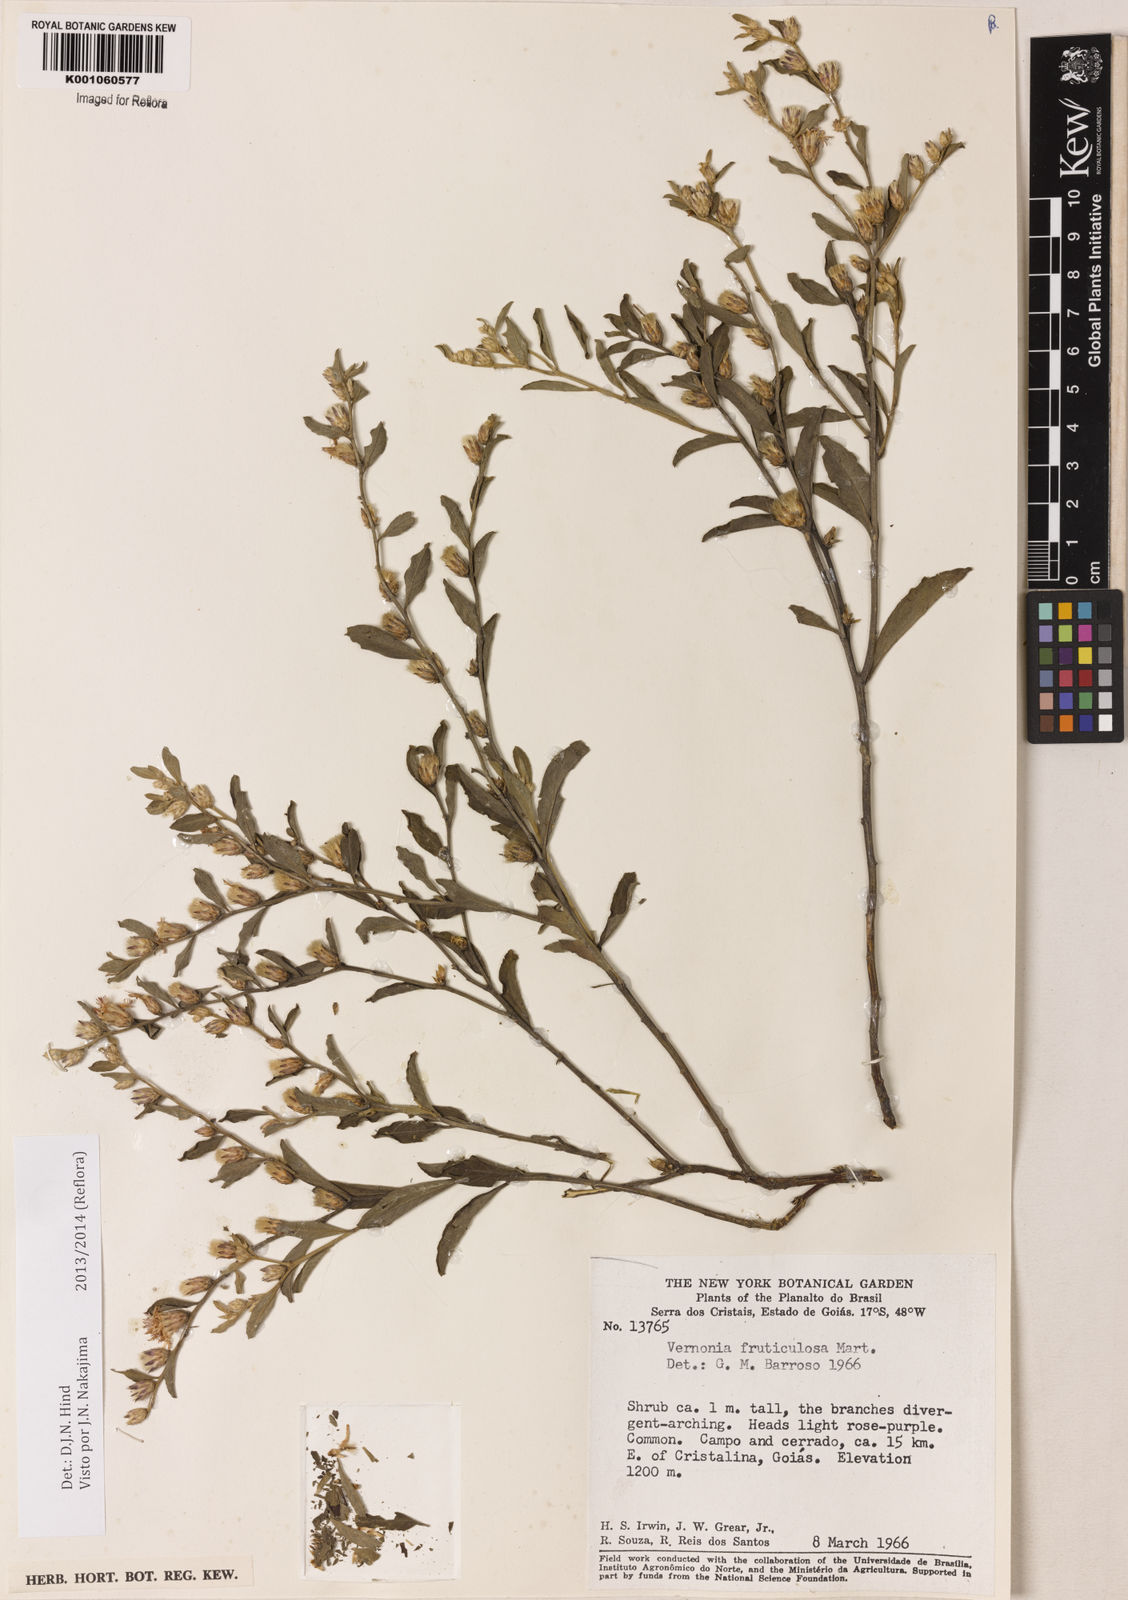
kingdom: Plantae
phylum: Tracheophyta
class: Magnoliopsida
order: Asterales
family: Asteraceae
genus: Lepidaploa
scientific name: Lepidaploa rufogrisea
